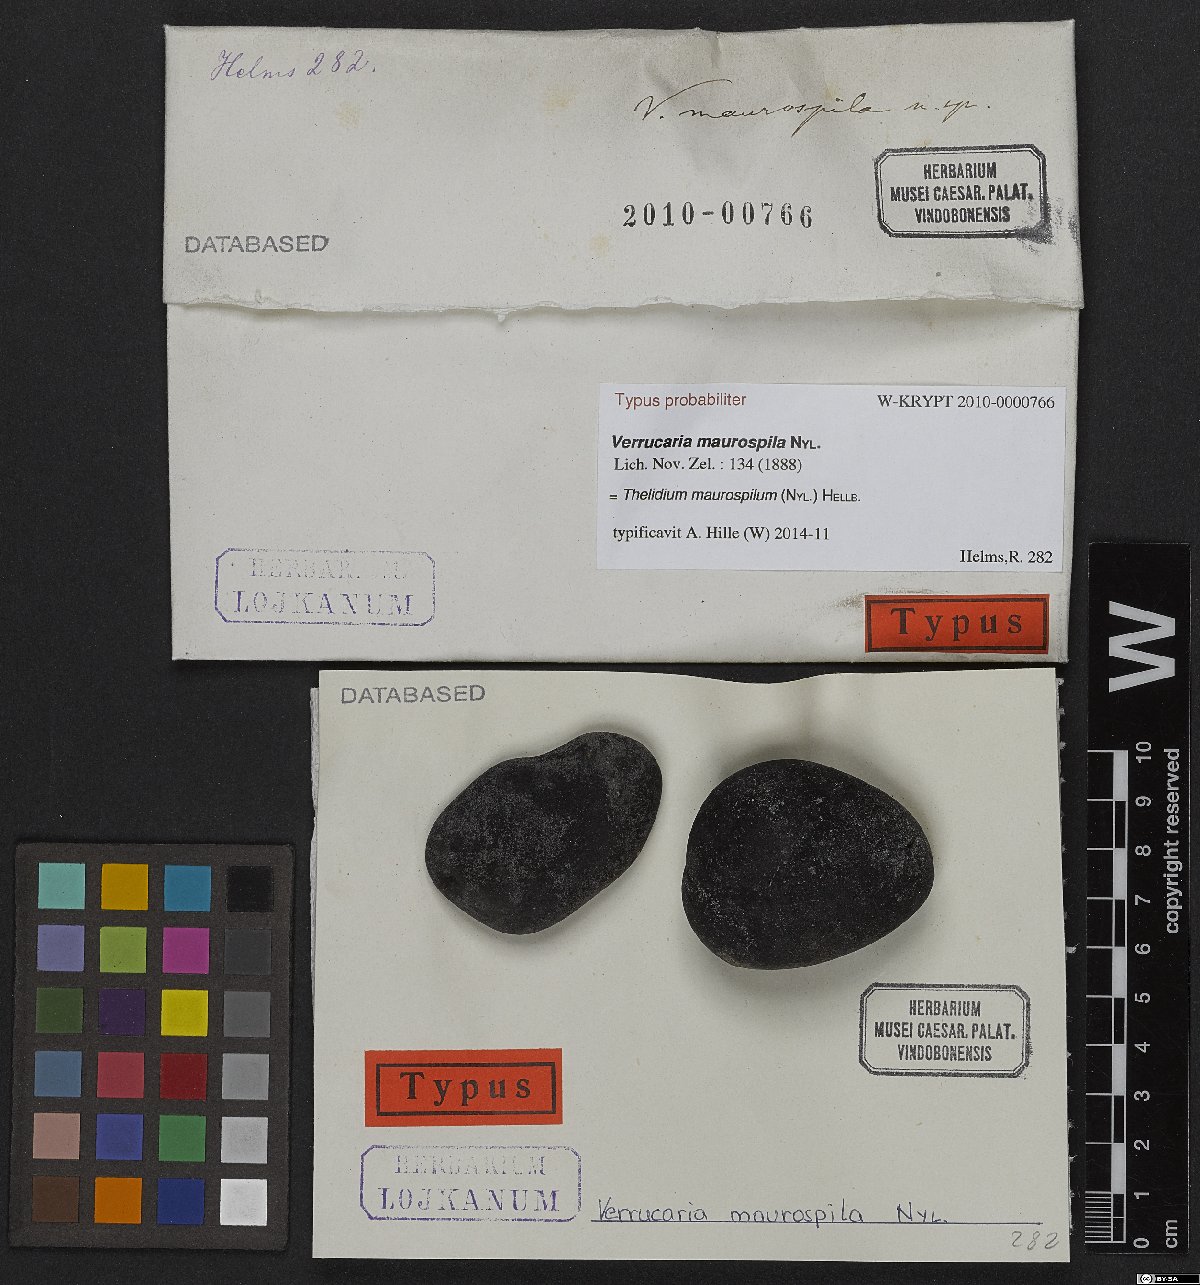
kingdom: Fungi
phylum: Ascomycota
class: Eurotiomycetes
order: Verrucariales
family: Verrucariaceae
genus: Verrucaria
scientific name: Verrucaria
